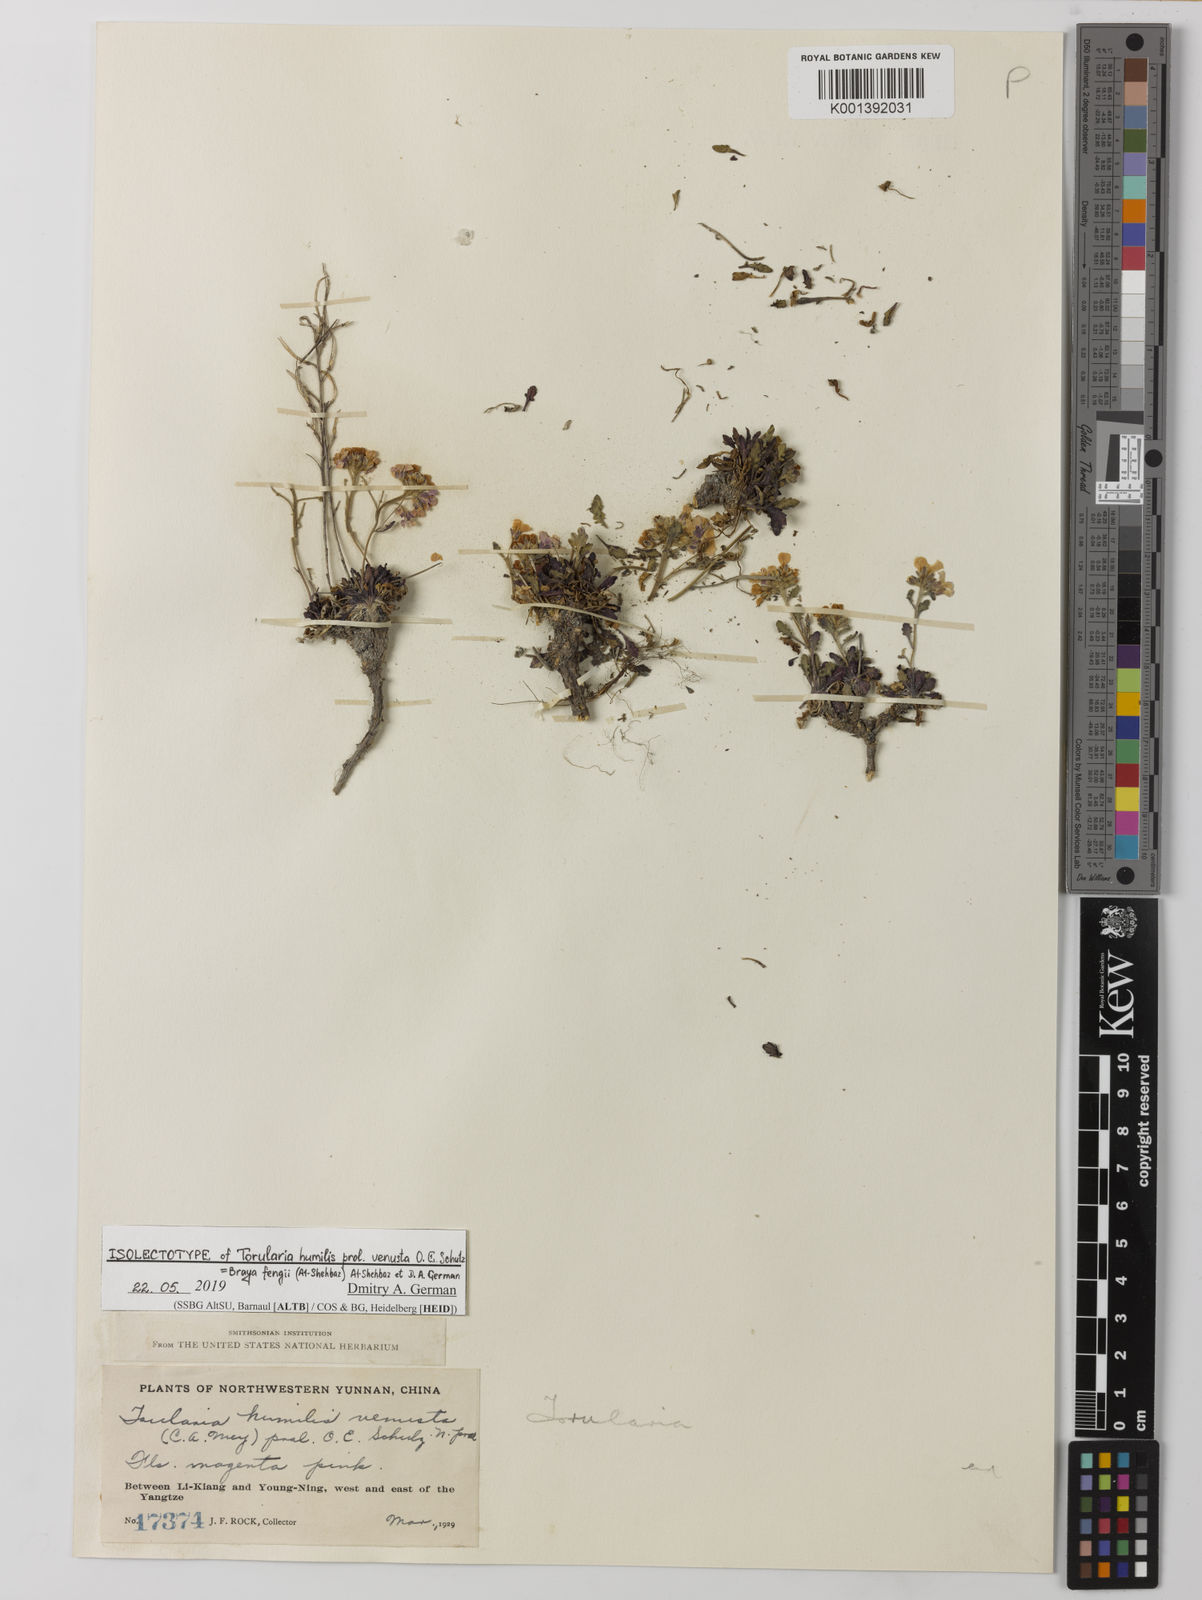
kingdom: Plantae
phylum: Tracheophyta
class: Magnoliopsida
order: Brassicales
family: Brassicaceae
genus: Neotorularia
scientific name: Neotorularia
